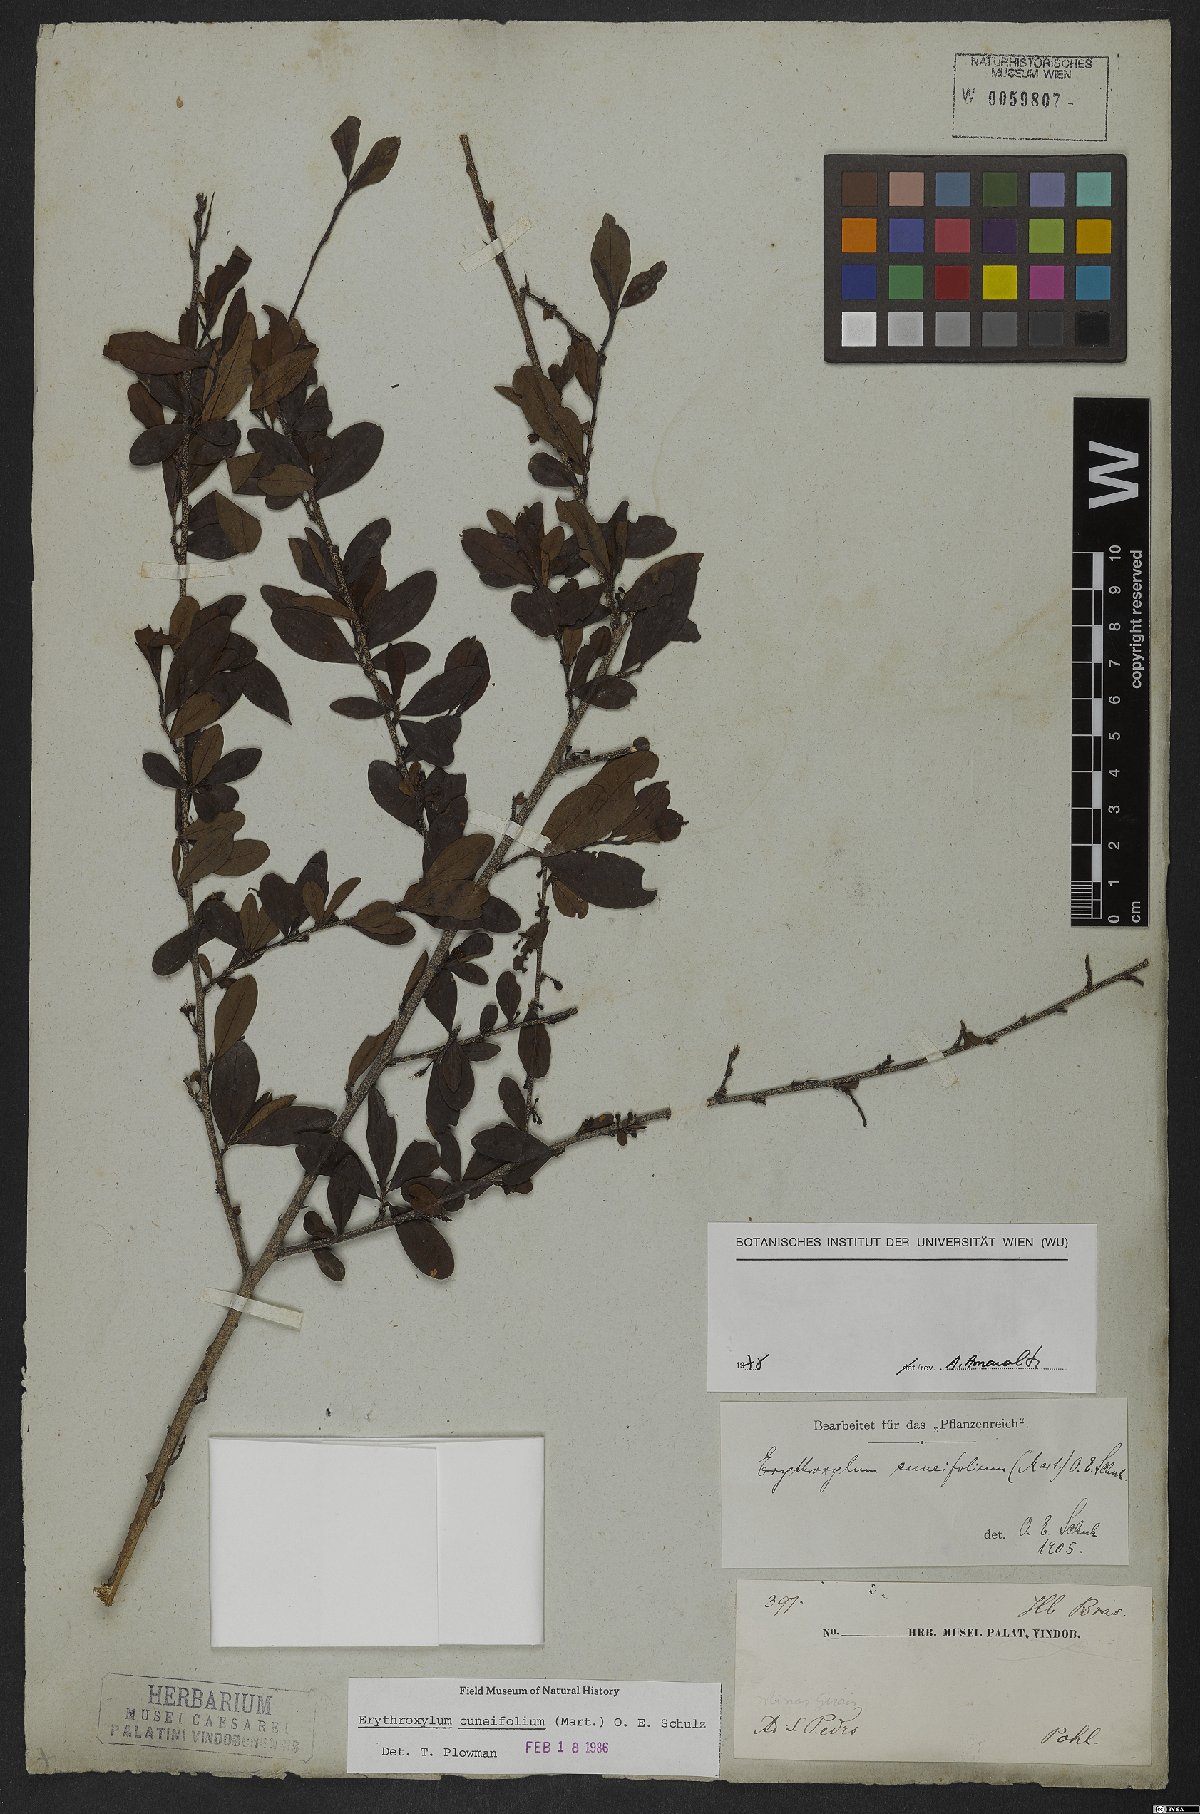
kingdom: Plantae
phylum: Tracheophyta
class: Magnoliopsida
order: Malpighiales
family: Erythroxylaceae
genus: Erythroxylum
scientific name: Erythroxylum cuneifolium
